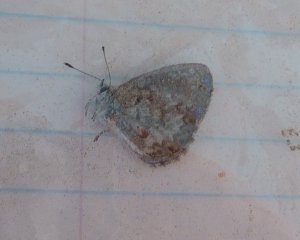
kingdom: Animalia
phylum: Arthropoda
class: Insecta
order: Lepidoptera
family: Lycaenidae
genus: Celastrina
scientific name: Celastrina serotina
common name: Cherry Gall Azure
